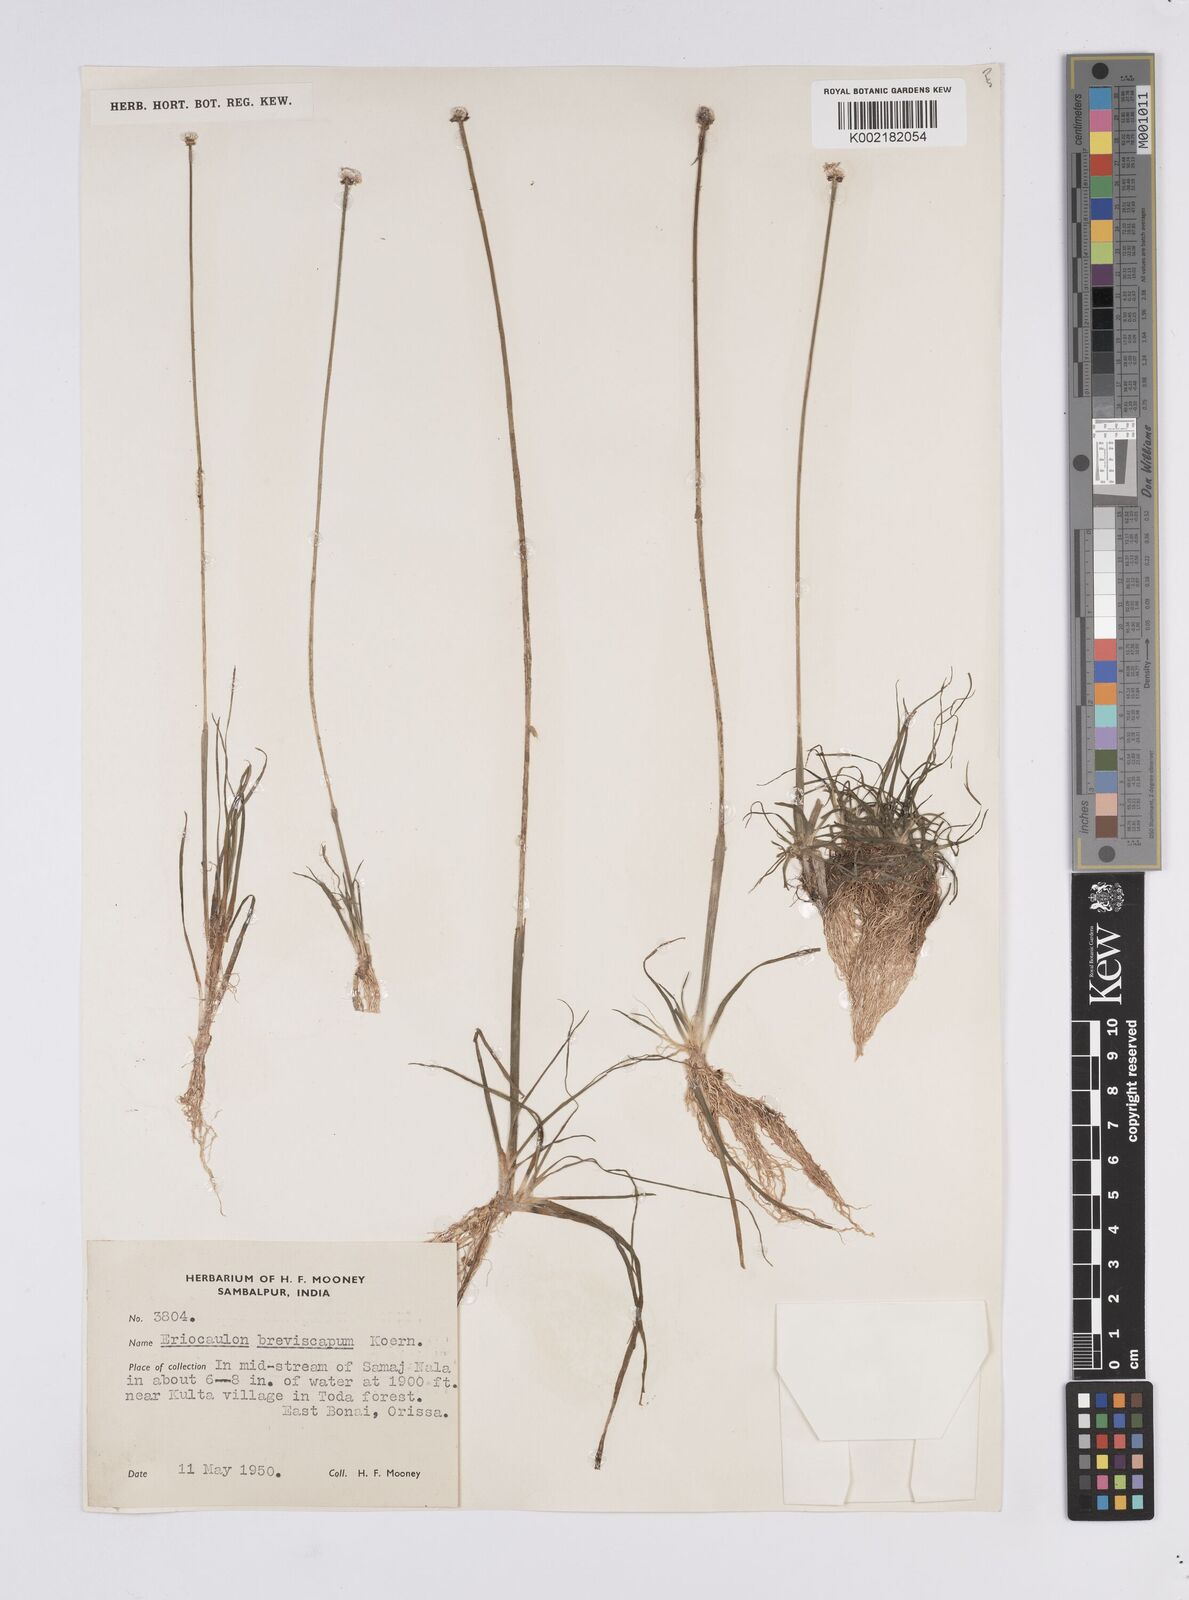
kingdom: Plantae
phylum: Tracheophyta
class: Liliopsida
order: Poales
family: Eriocaulaceae
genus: Eriocaulon
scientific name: Eriocaulon breviscapum
